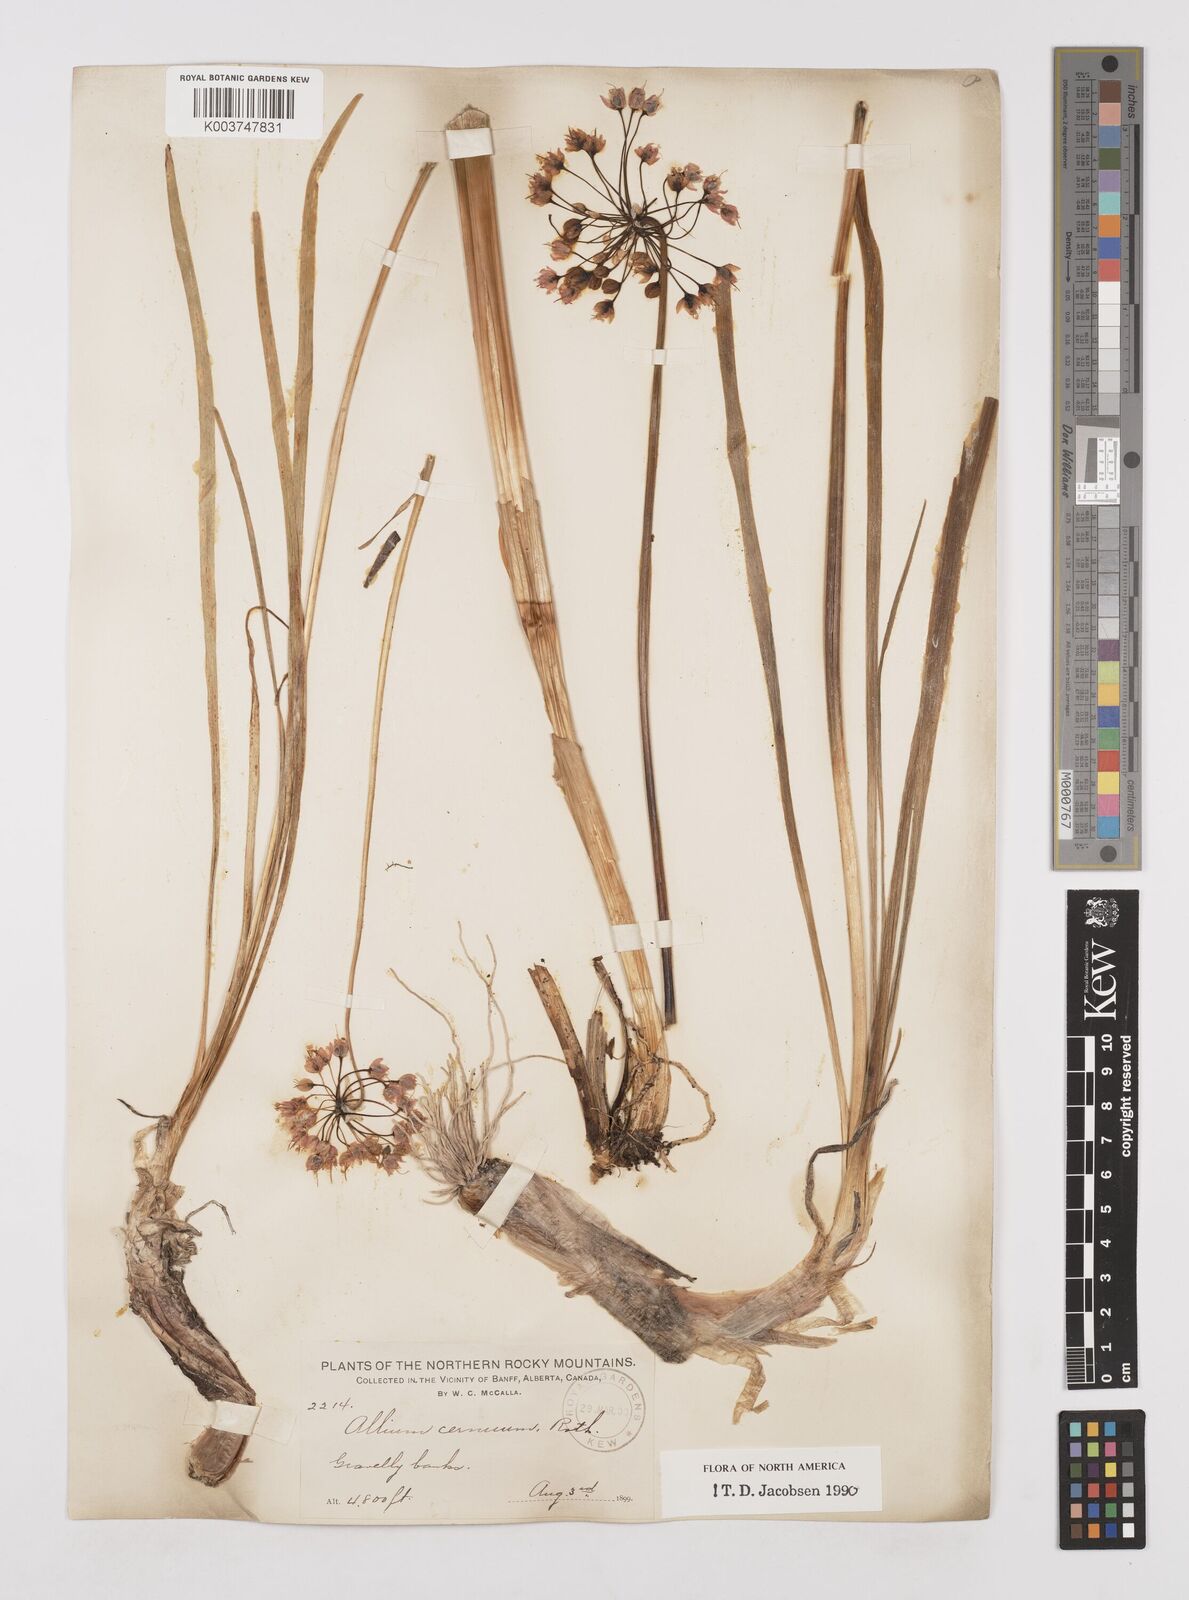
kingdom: Plantae
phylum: Tracheophyta
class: Liliopsida
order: Asparagales
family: Amaryllidaceae
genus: Allium
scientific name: Allium cernuum
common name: Nodding onion
